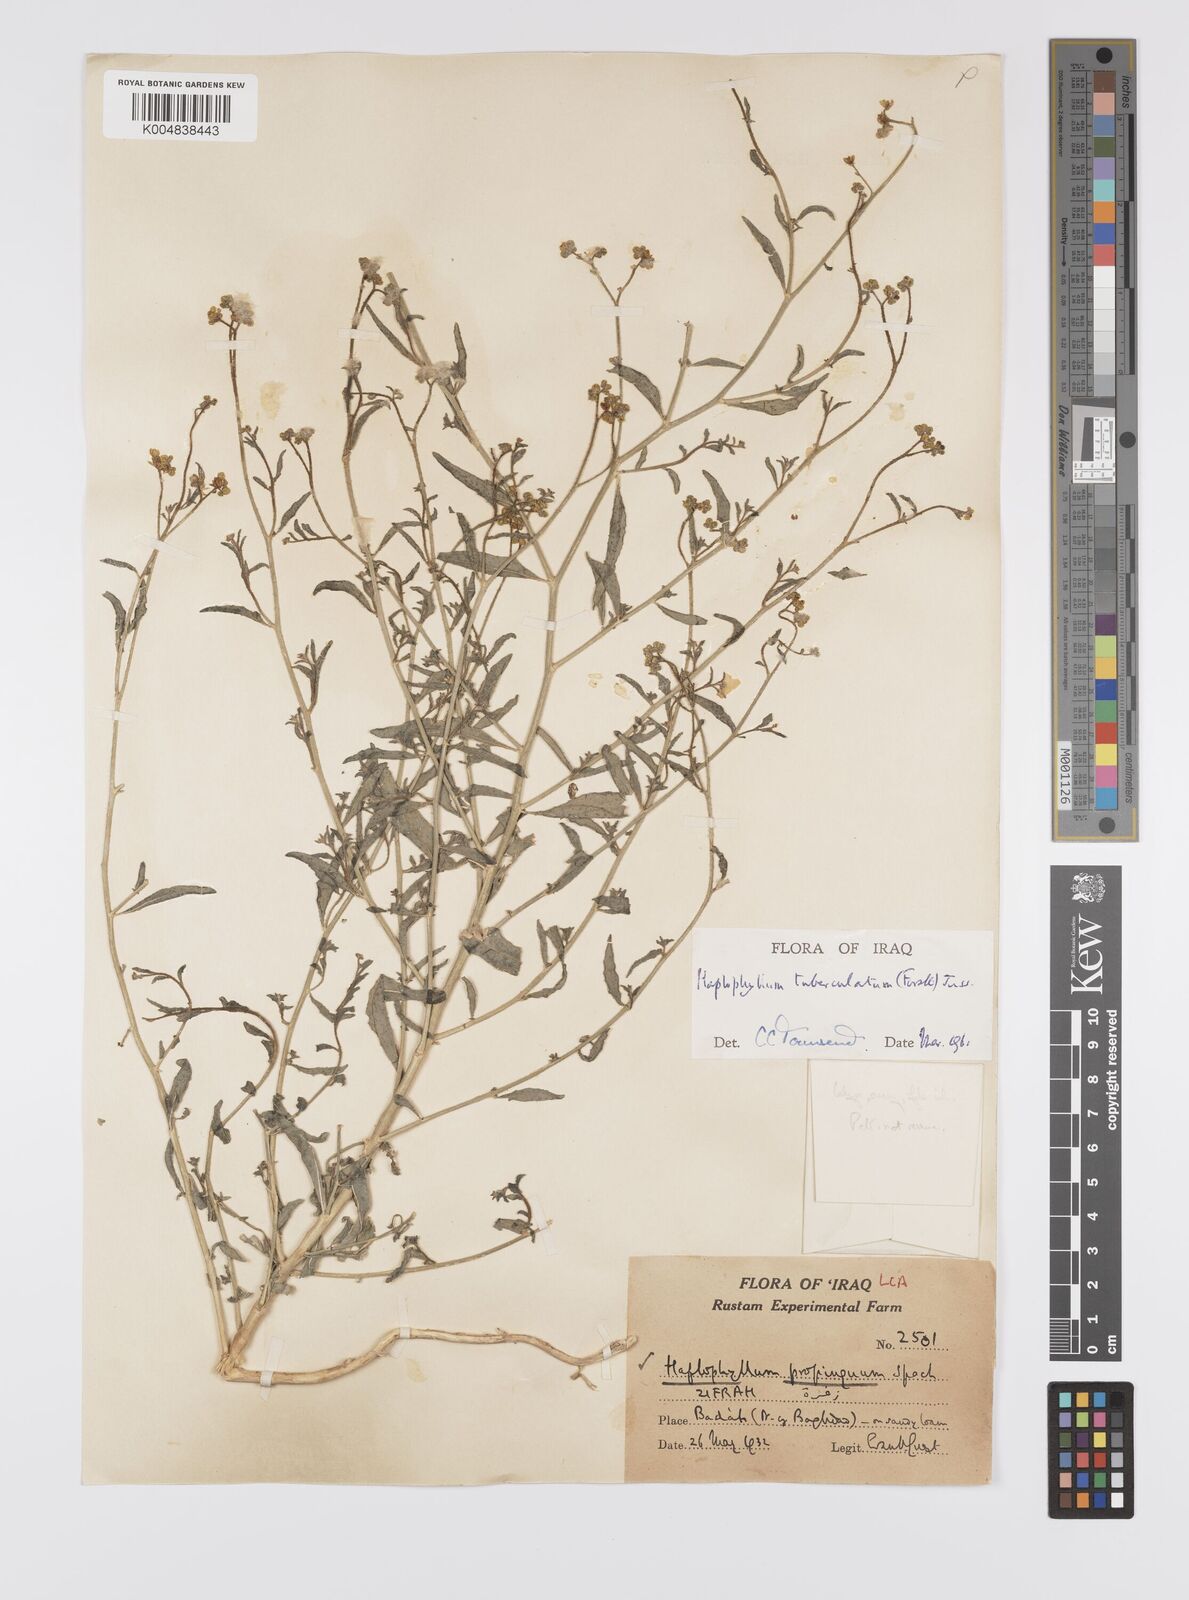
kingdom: Plantae
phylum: Tracheophyta
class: Magnoliopsida
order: Sapindales
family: Rutaceae
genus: Haplophyllum
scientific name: Haplophyllum tuberculatum
